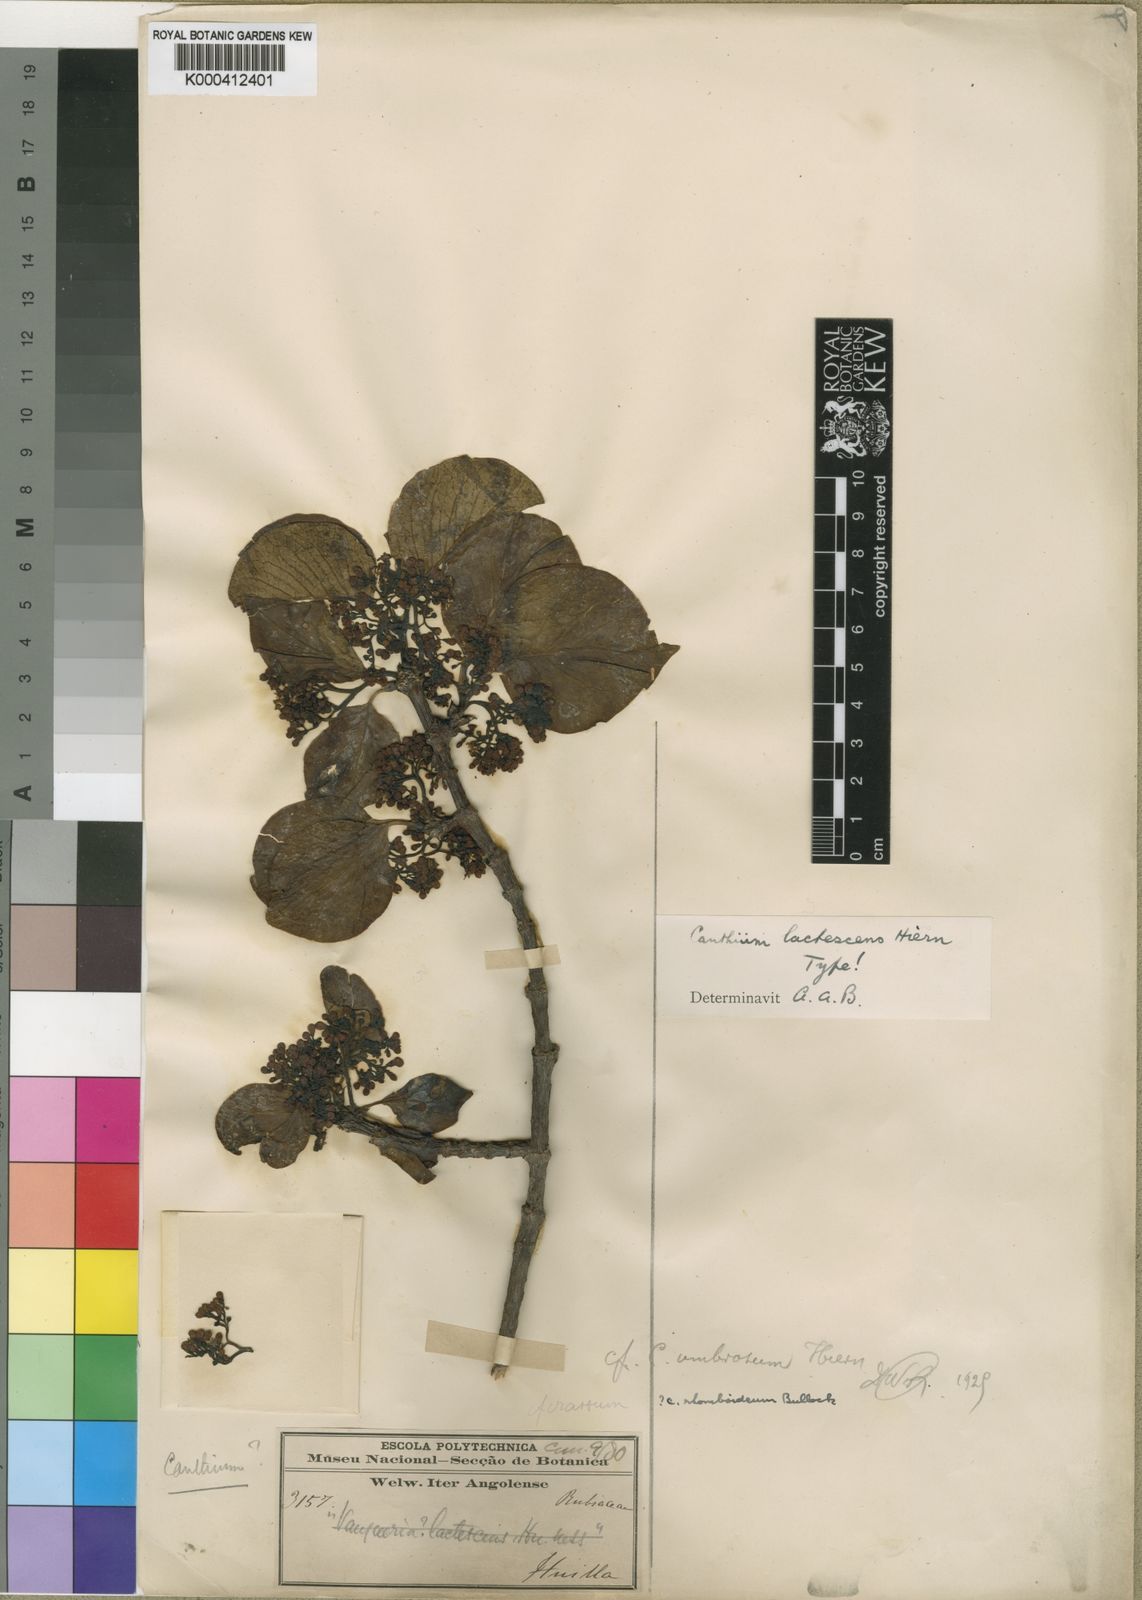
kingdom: Plantae
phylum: Tracheophyta
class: Magnoliopsida
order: Gentianales
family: Rubiaceae
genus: Afrocanthium
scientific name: Afrocanthium lactescens
